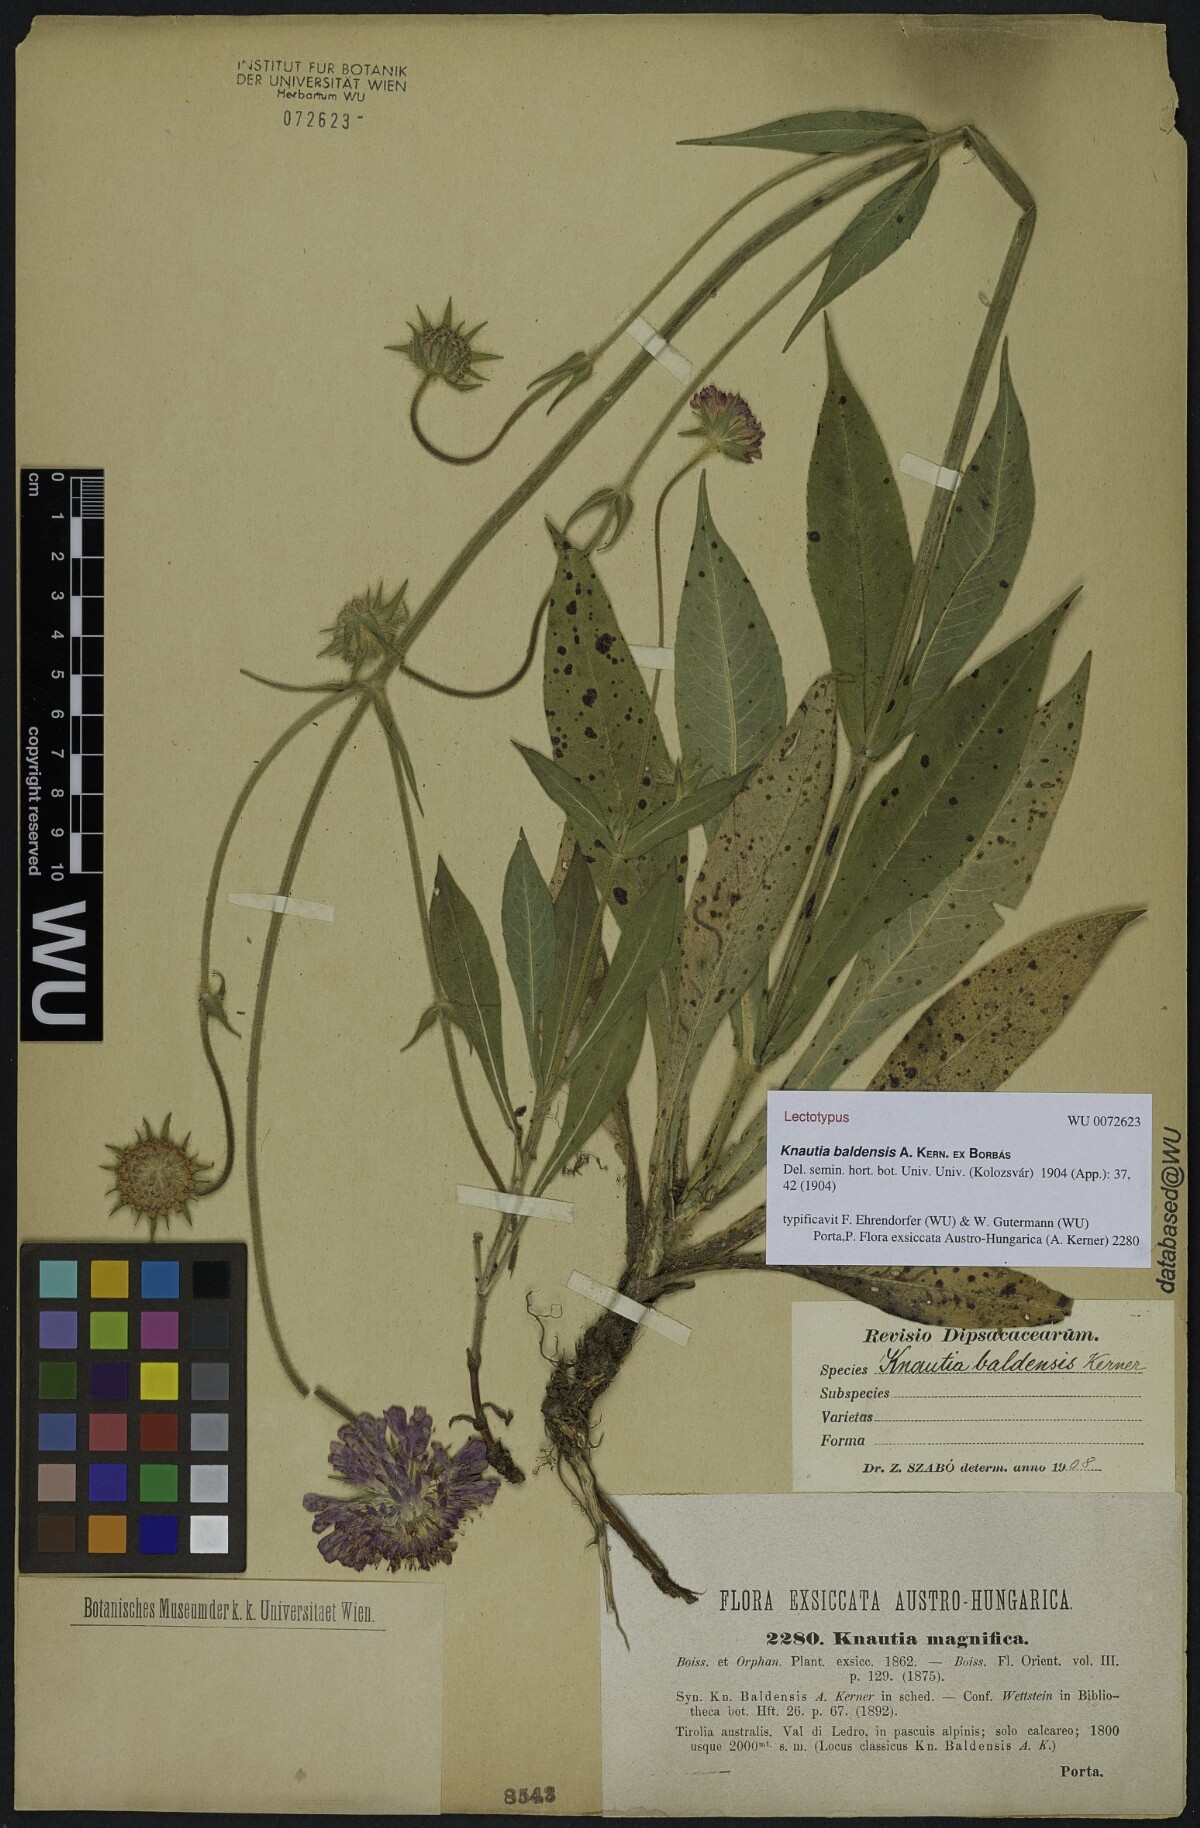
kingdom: Plantae
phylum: Tracheophyta
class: Magnoliopsida
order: Dipsacales
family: Caprifoliaceae
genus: Knautia
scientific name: Knautia baldensis
